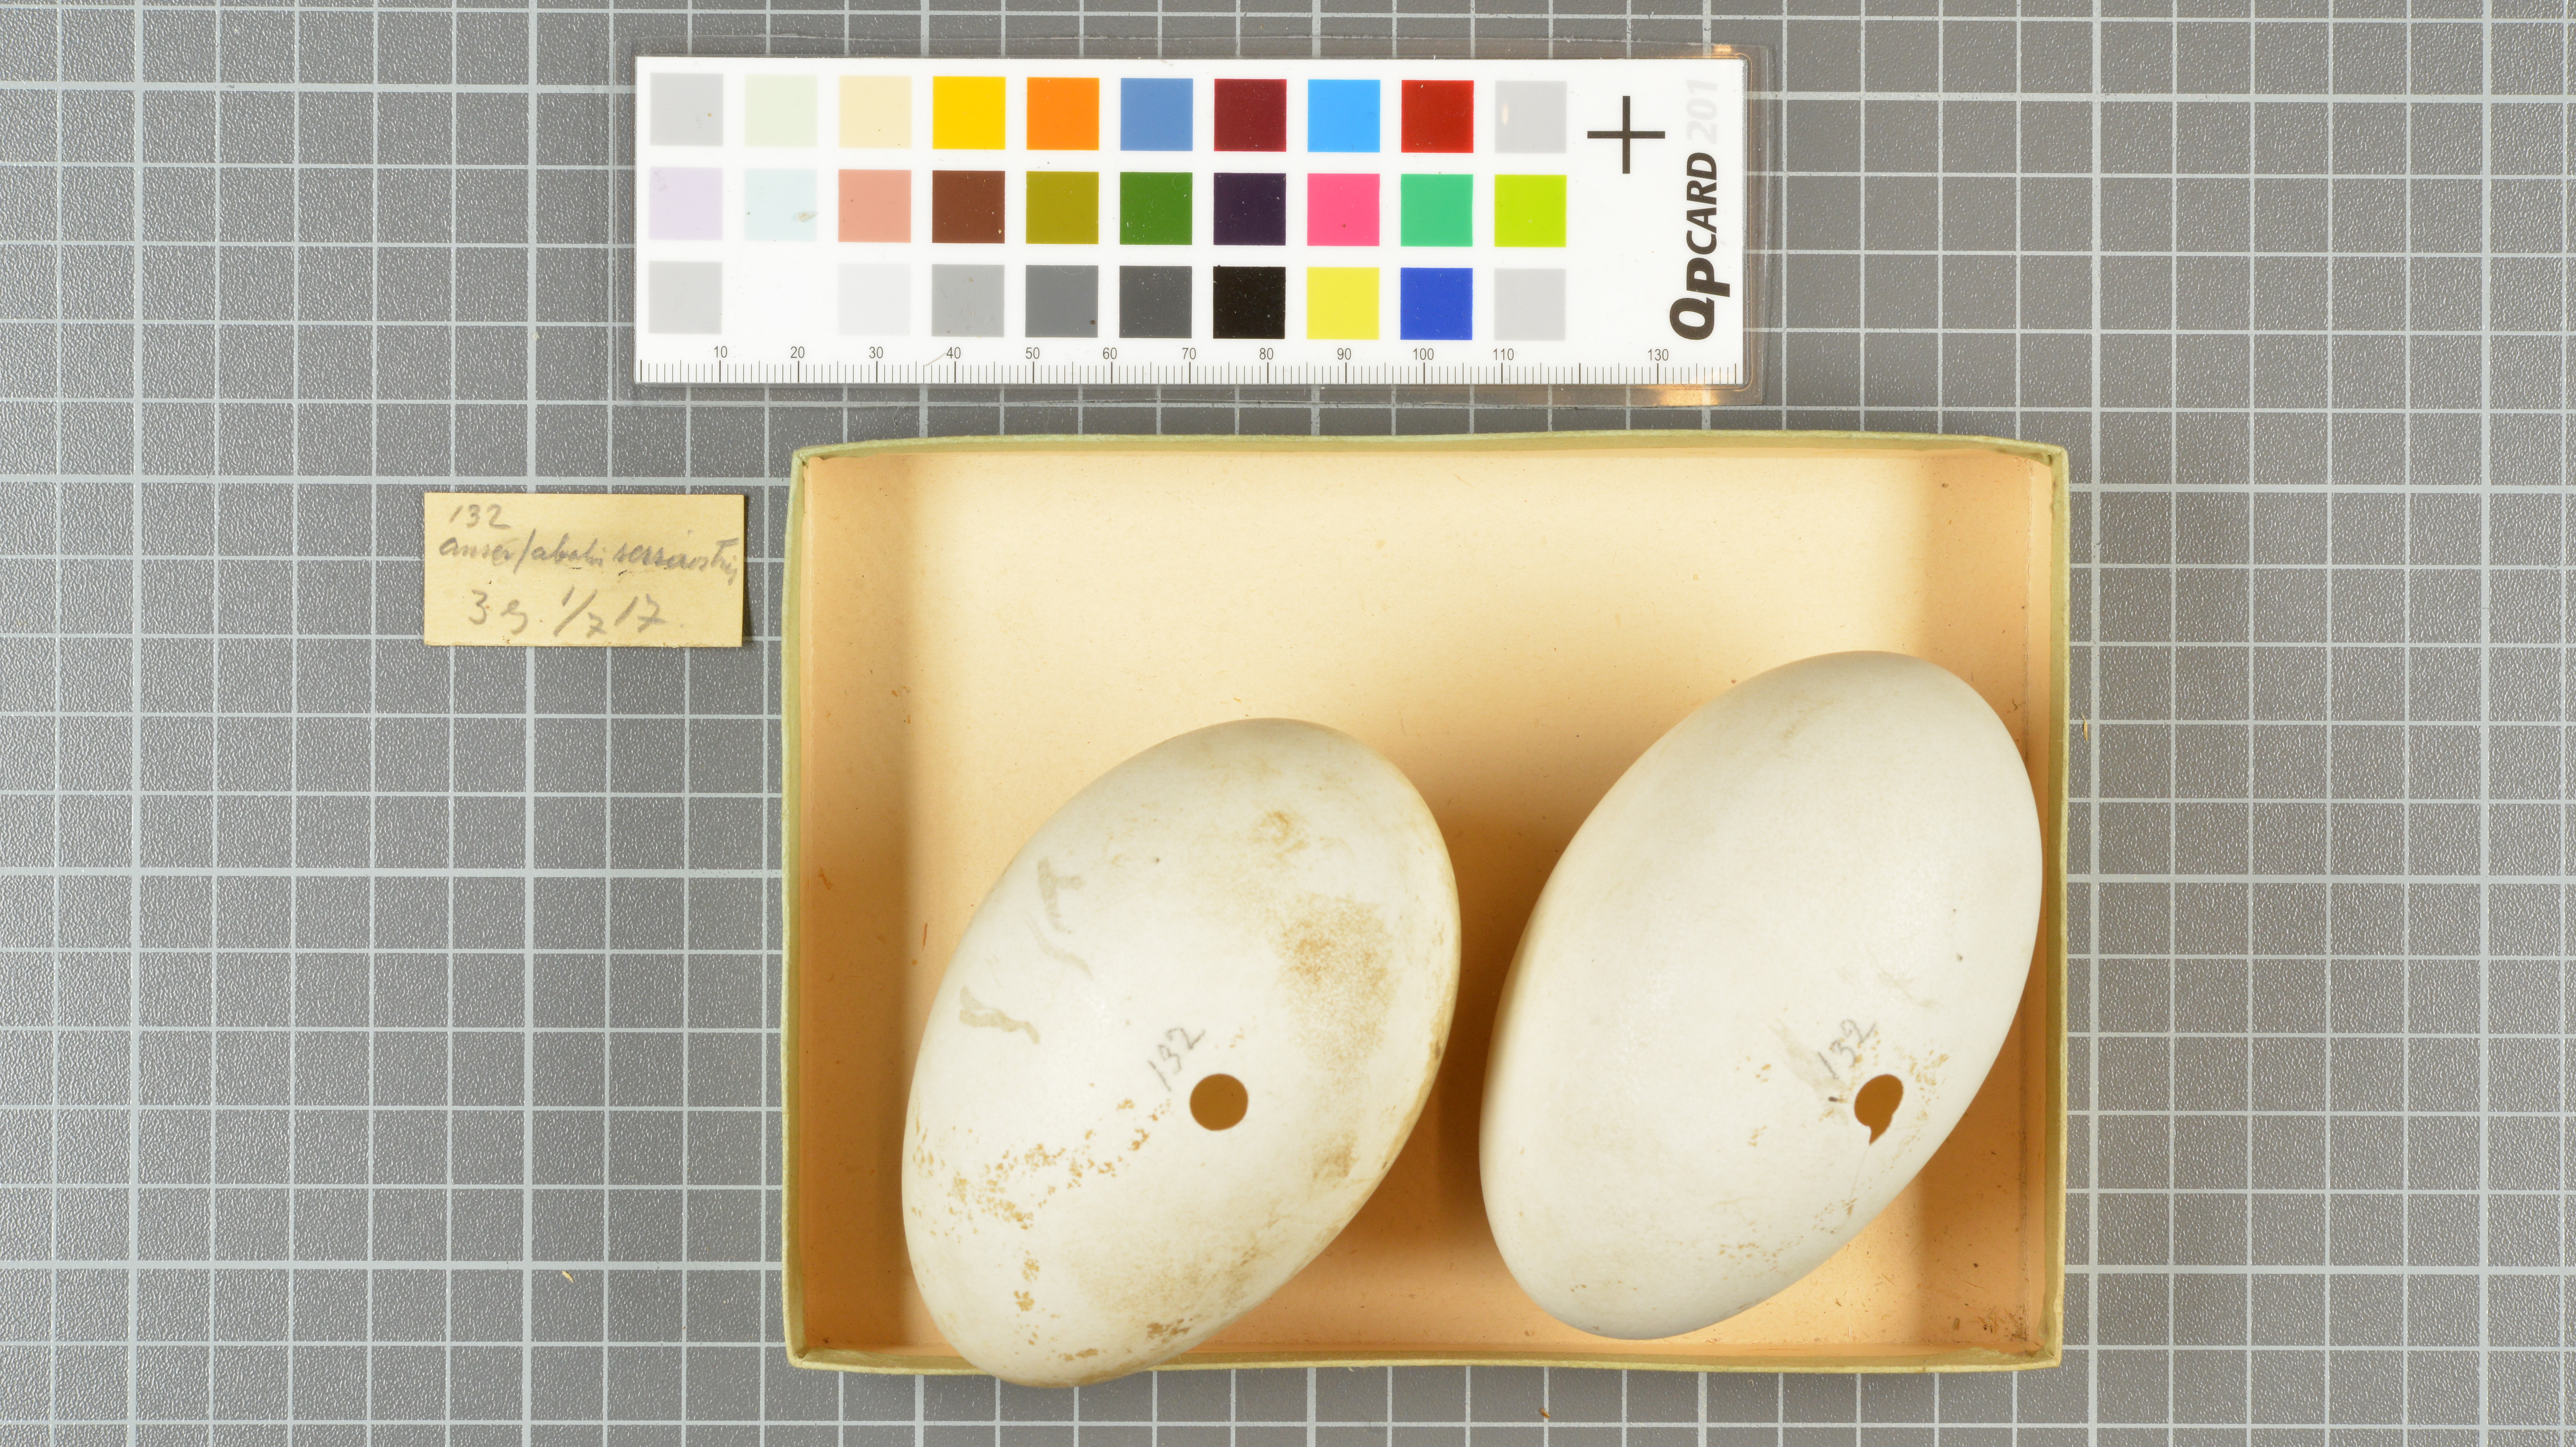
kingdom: Animalia
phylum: Chordata
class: Aves
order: Anseriformes
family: Anatidae
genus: Anser
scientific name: Anser serrirostris
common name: Tundra bean goose
